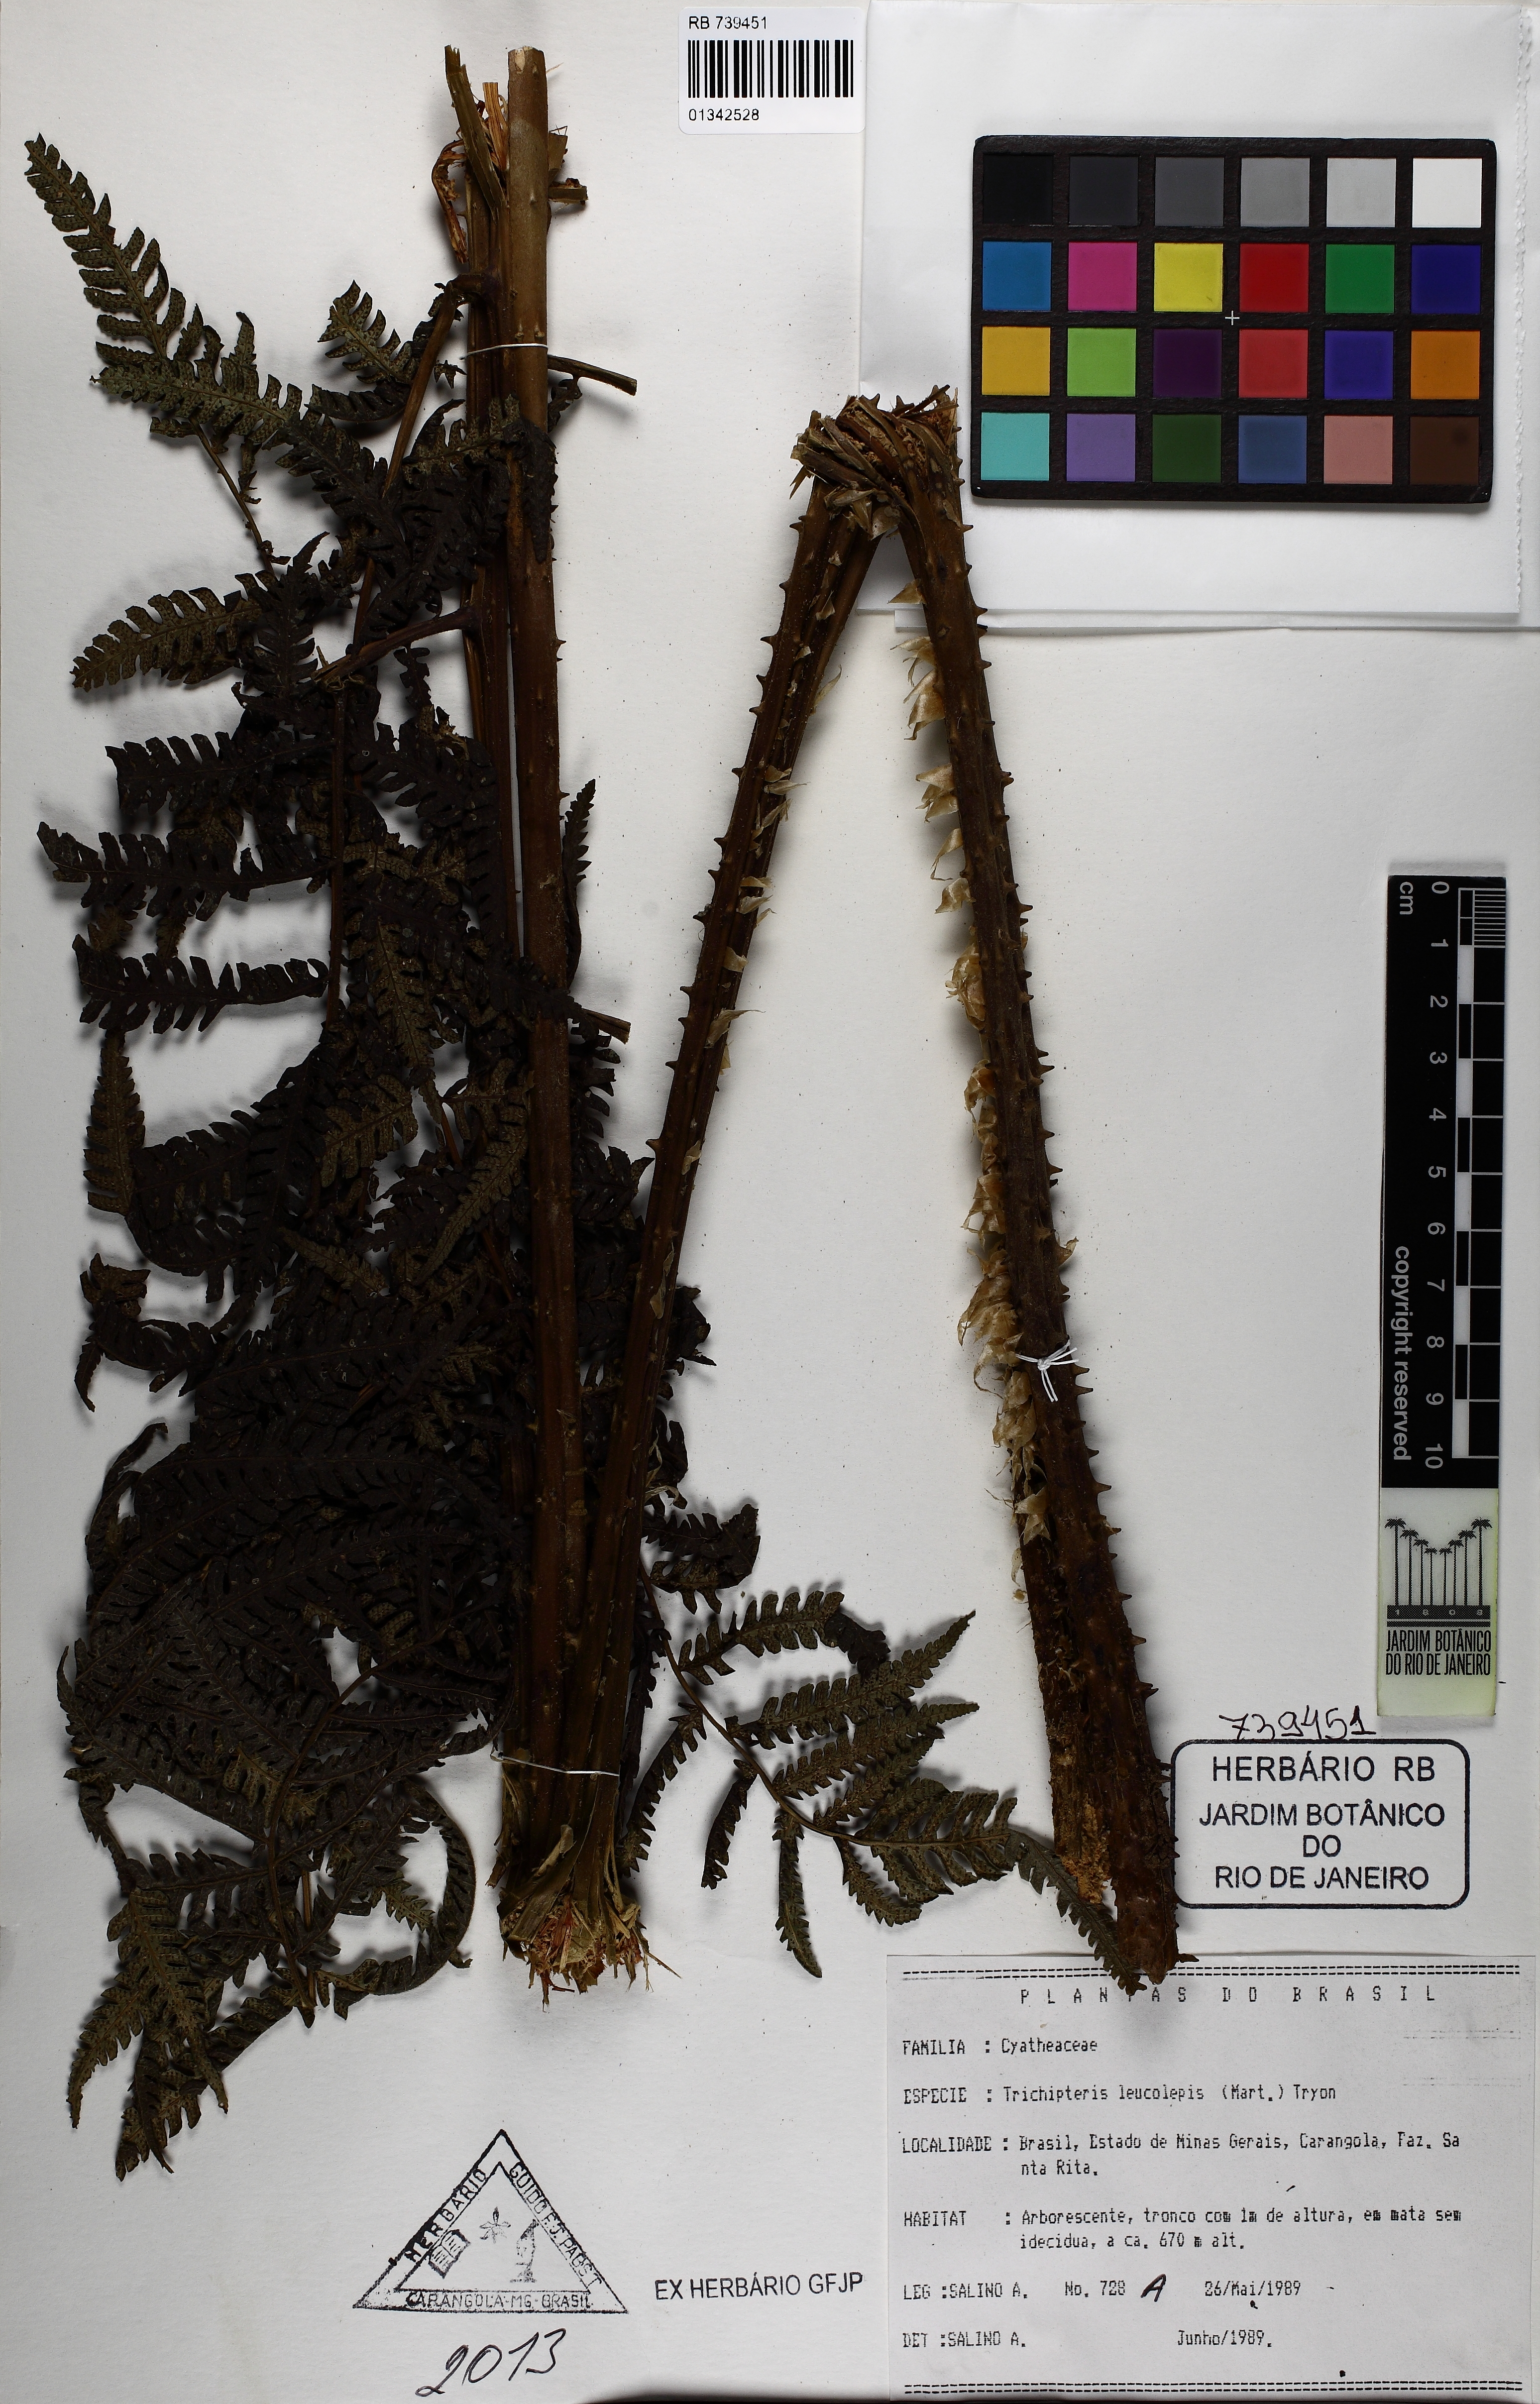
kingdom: Plantae
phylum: Tracheophyta
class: Polypodiopsida
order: Cyatheales
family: Cyatheaceae
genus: Cyathea
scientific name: Cyathea axillaris
